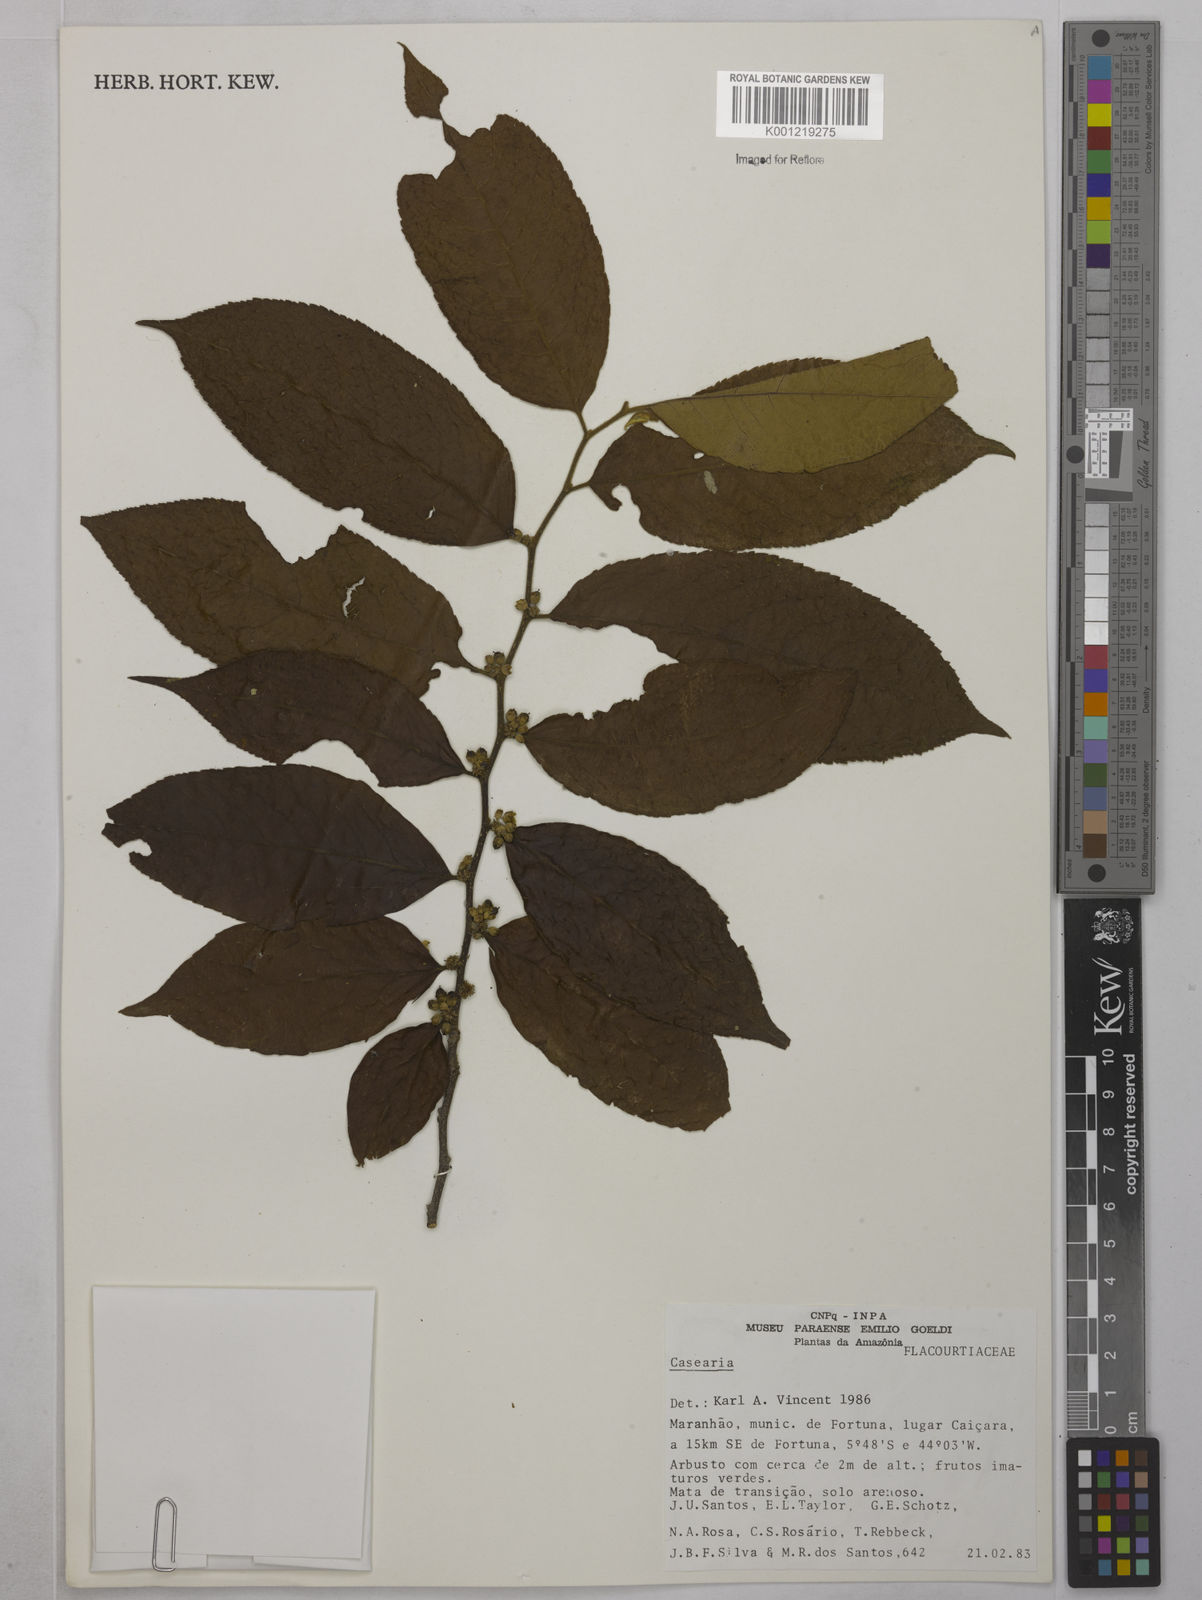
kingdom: Plantae
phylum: Tracheophyta
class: Magnoliopsida
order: Malpighiales
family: Salicaceae
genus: Casearia
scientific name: Casearia
